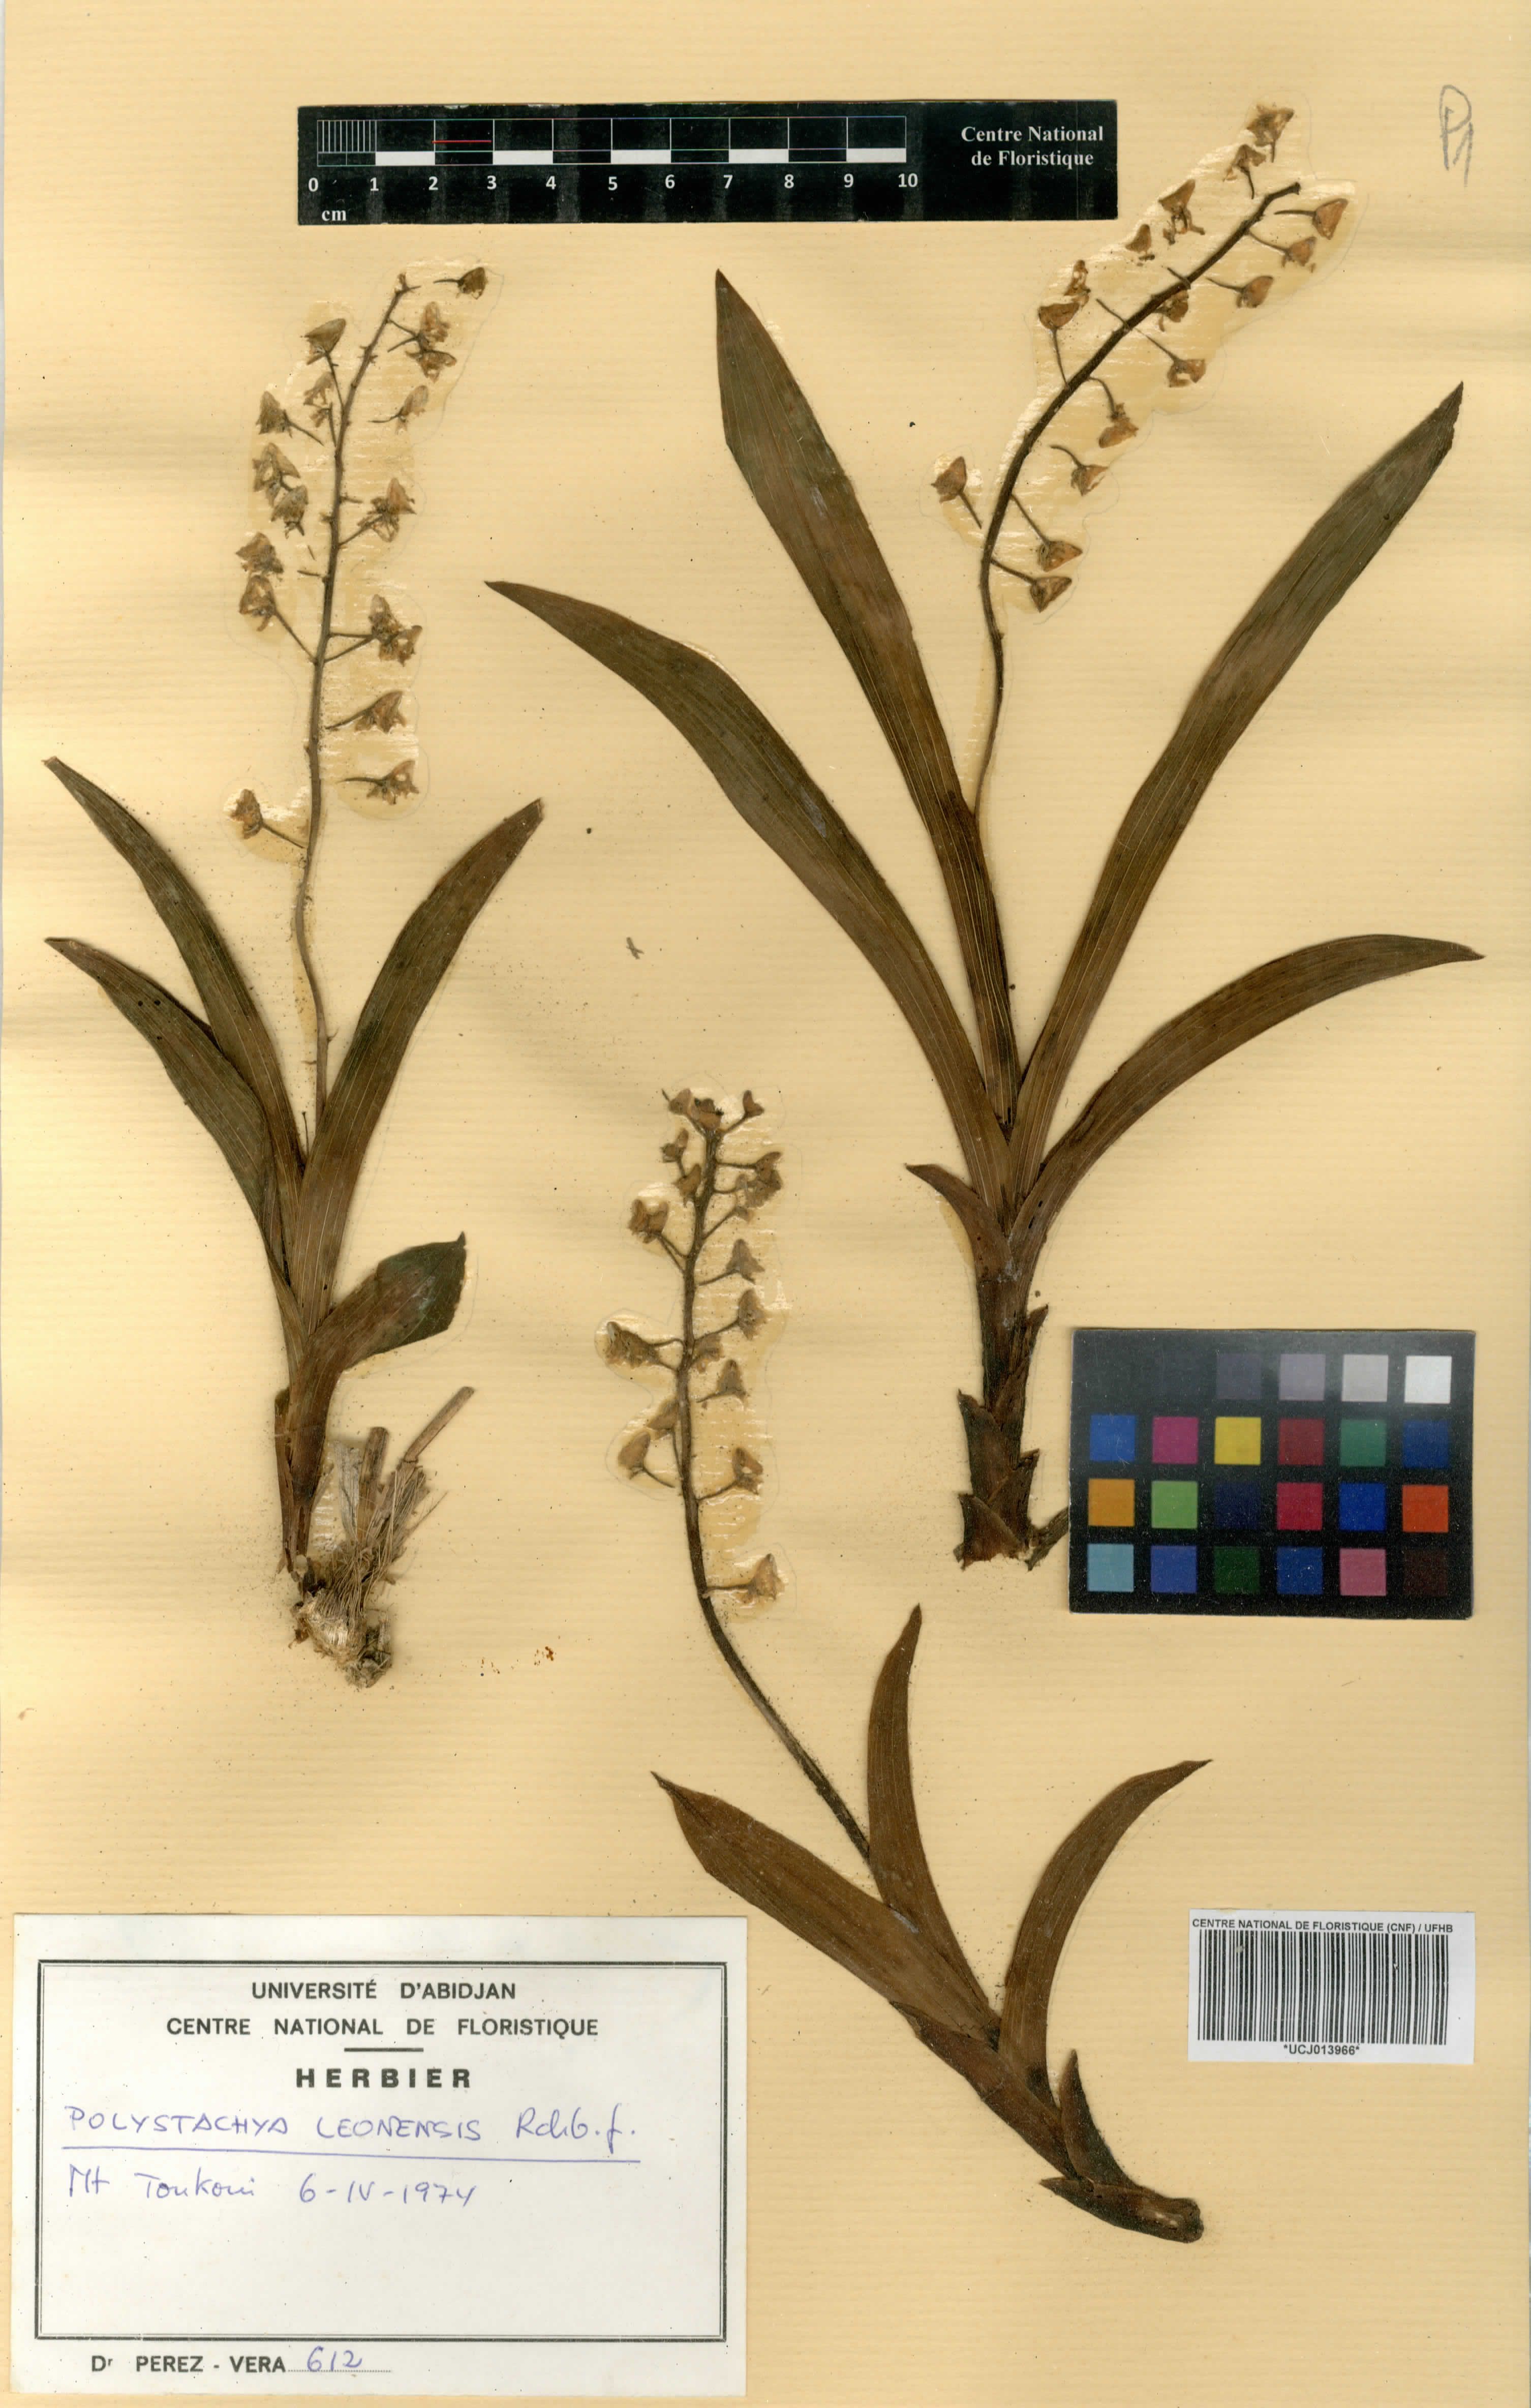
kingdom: Plantae
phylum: Tracheophyta
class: Liliopsida
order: Asparagales
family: Orchidaceae
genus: Polystachya
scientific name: Polystachya leonensis
